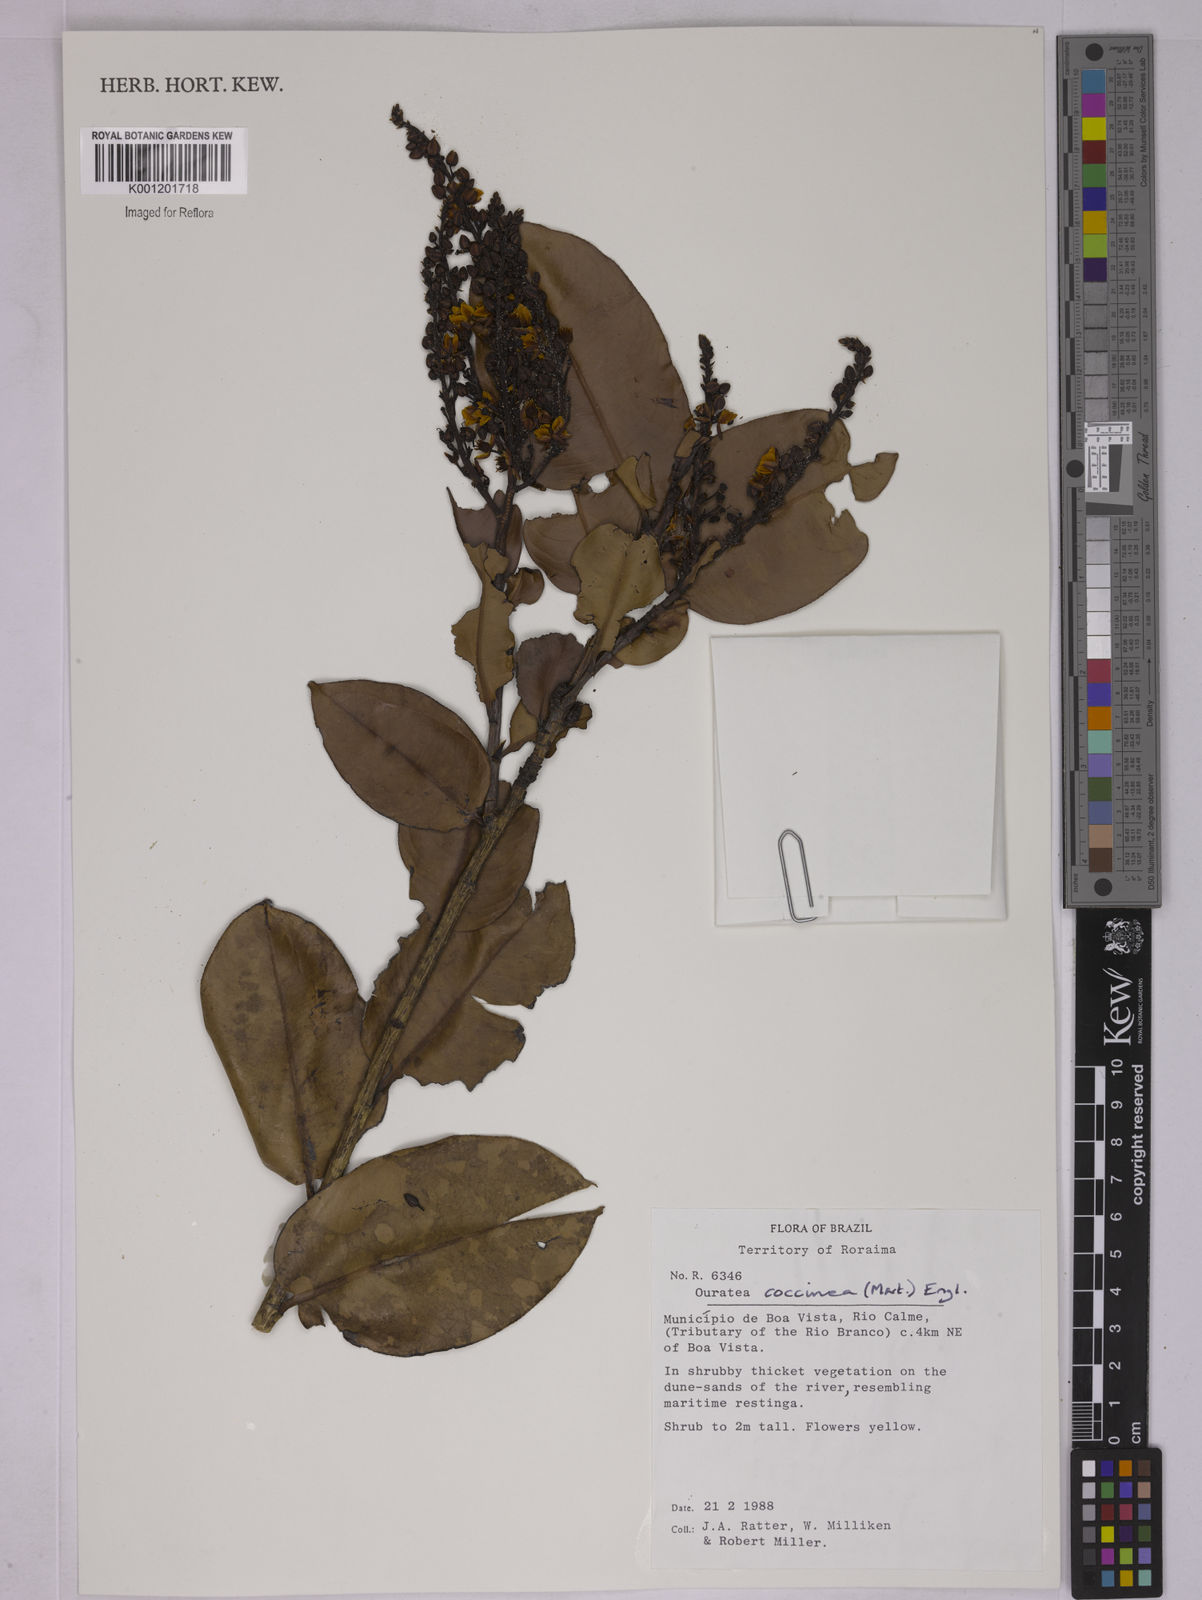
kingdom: Plantae
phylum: Tracheophyta
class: Magnoliopsida
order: Malpighiales
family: Ochnaceae
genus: Ouratea
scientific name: Ouratea coccinea
